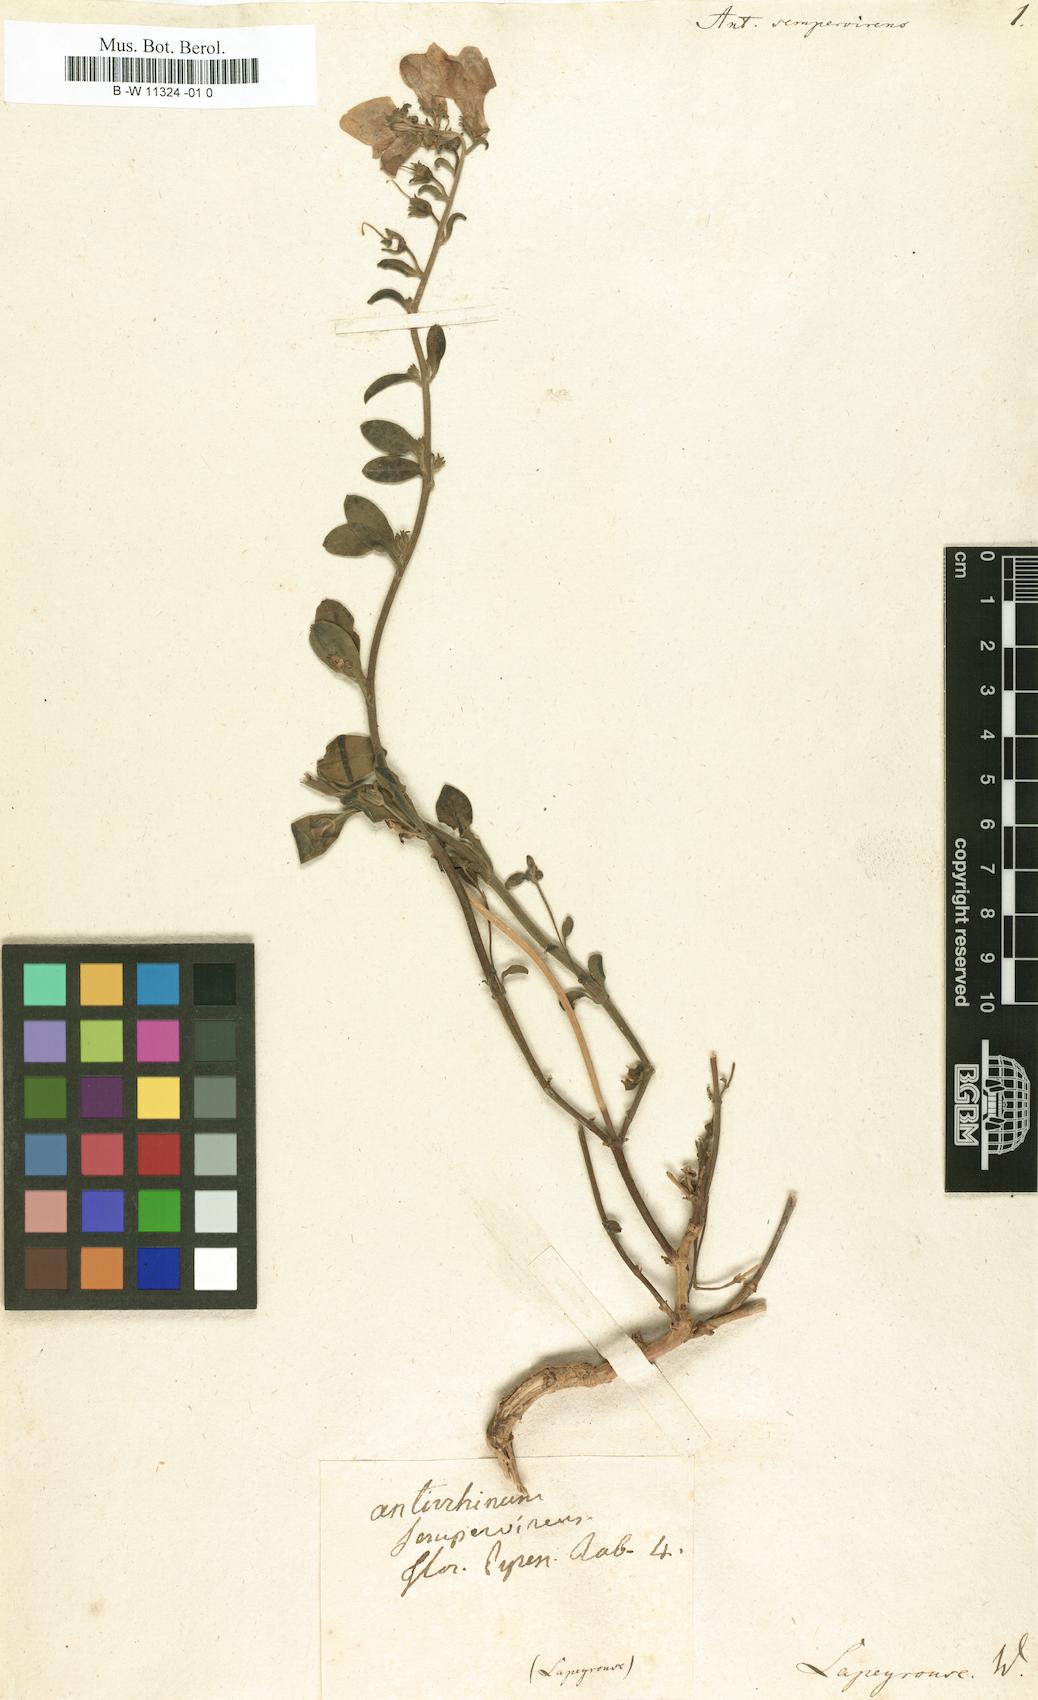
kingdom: Plantae
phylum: Tracheophyta
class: Magnoliopsida
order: Lamiales
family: Plantaginaceae
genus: Antirrhinum
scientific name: Antirrhinum sempervirens
